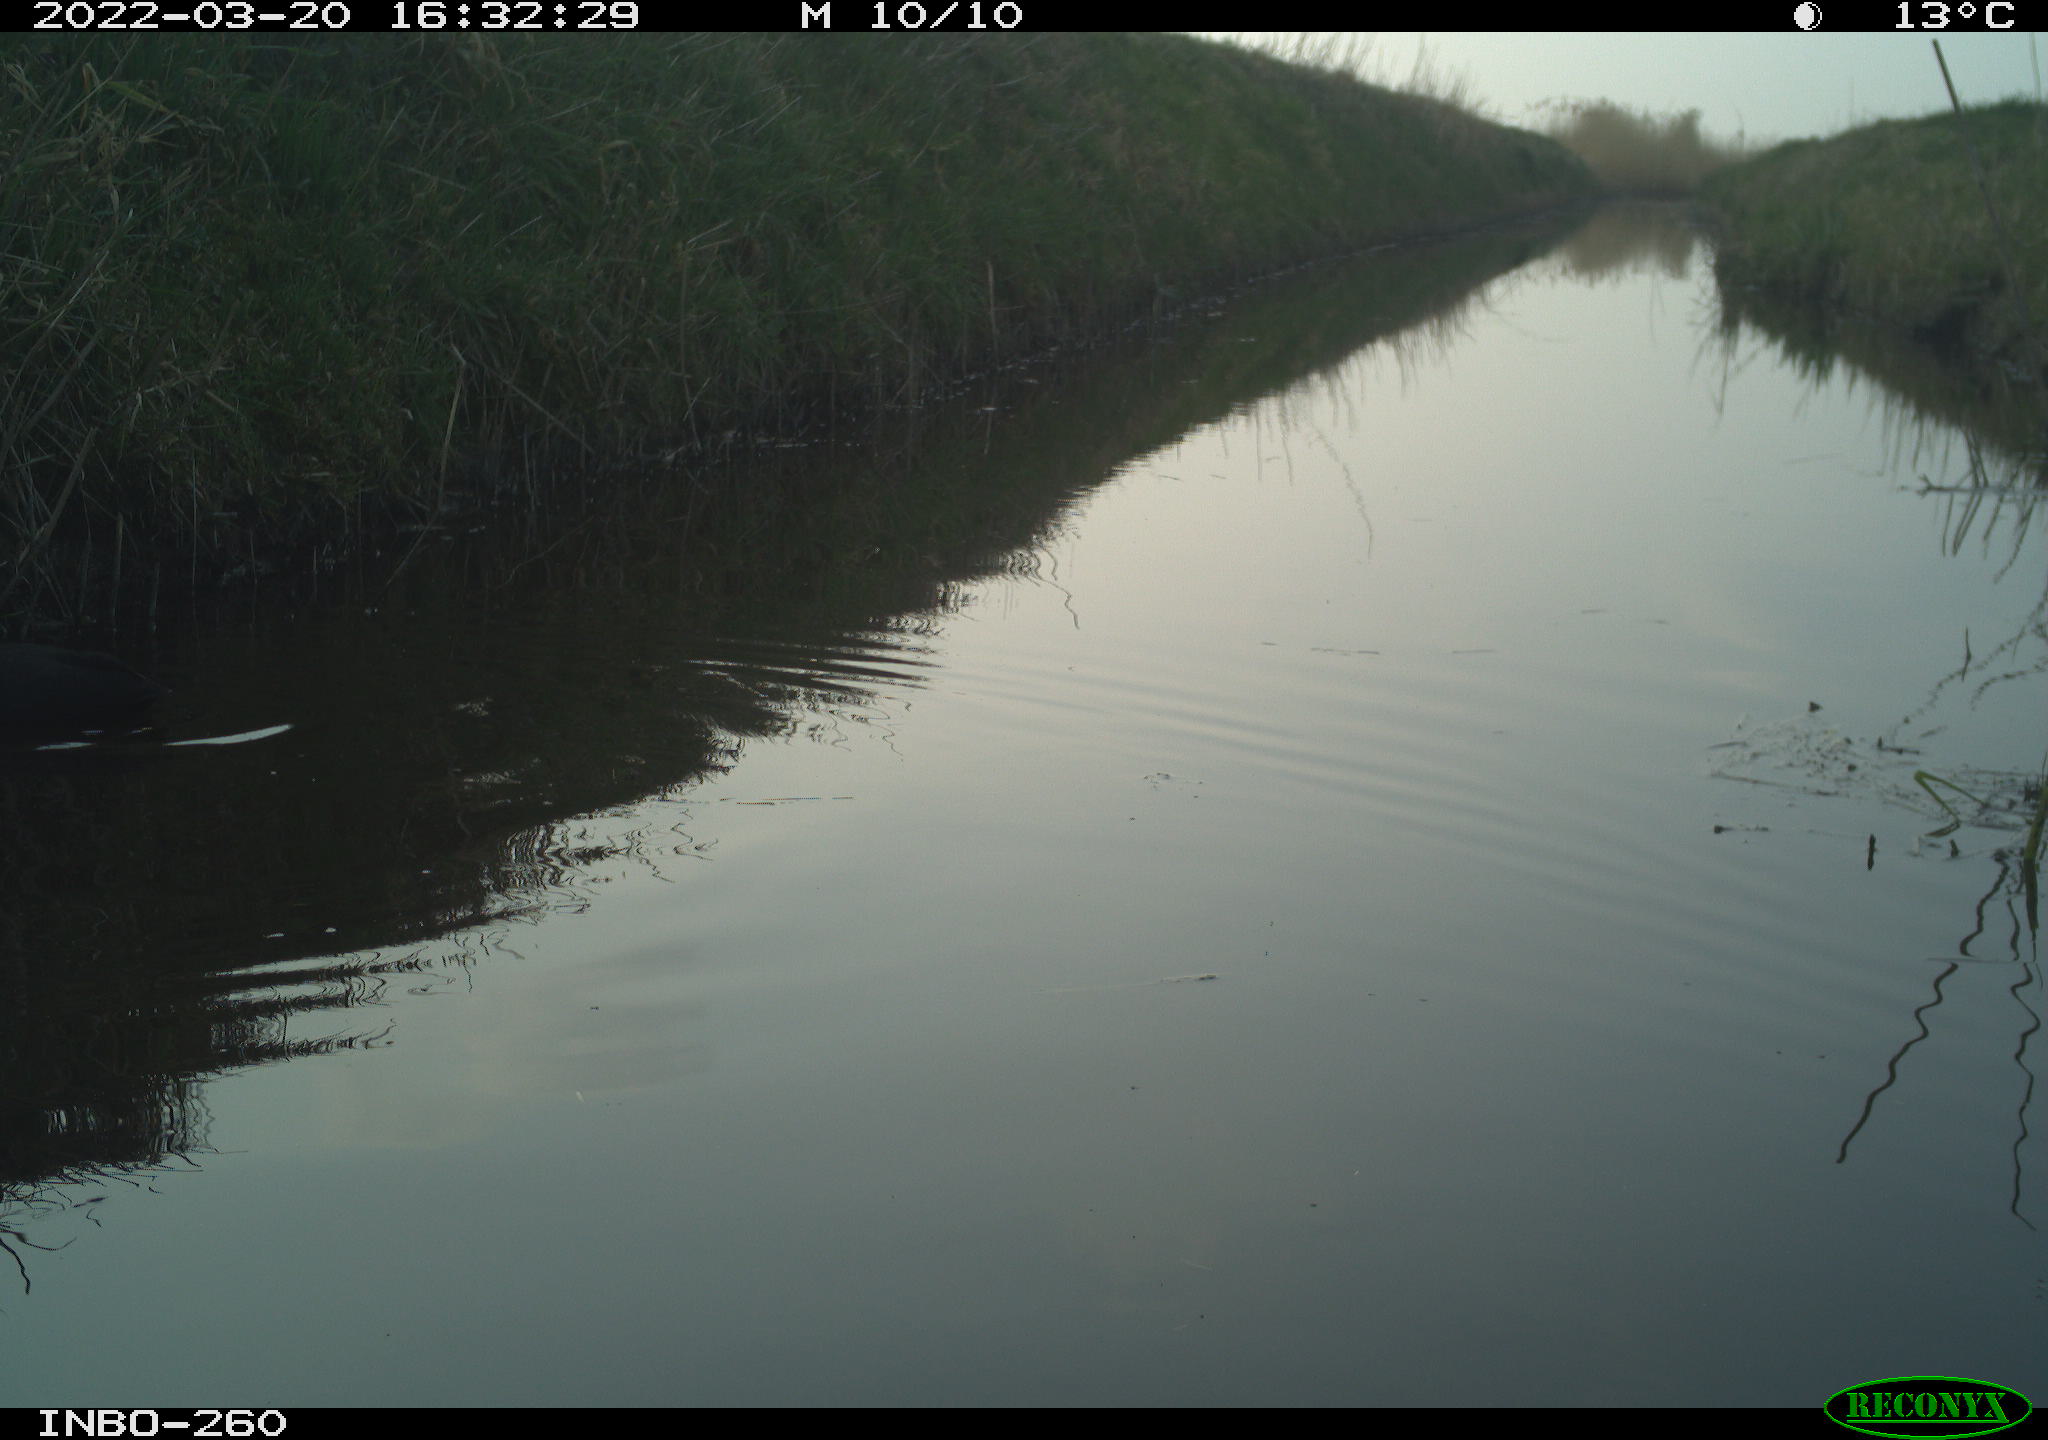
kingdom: Animalia
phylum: Chordata
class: Aves
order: Gruiformes
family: Rallidae
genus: Fulica
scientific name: Fulica atra
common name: Eurasian coot
